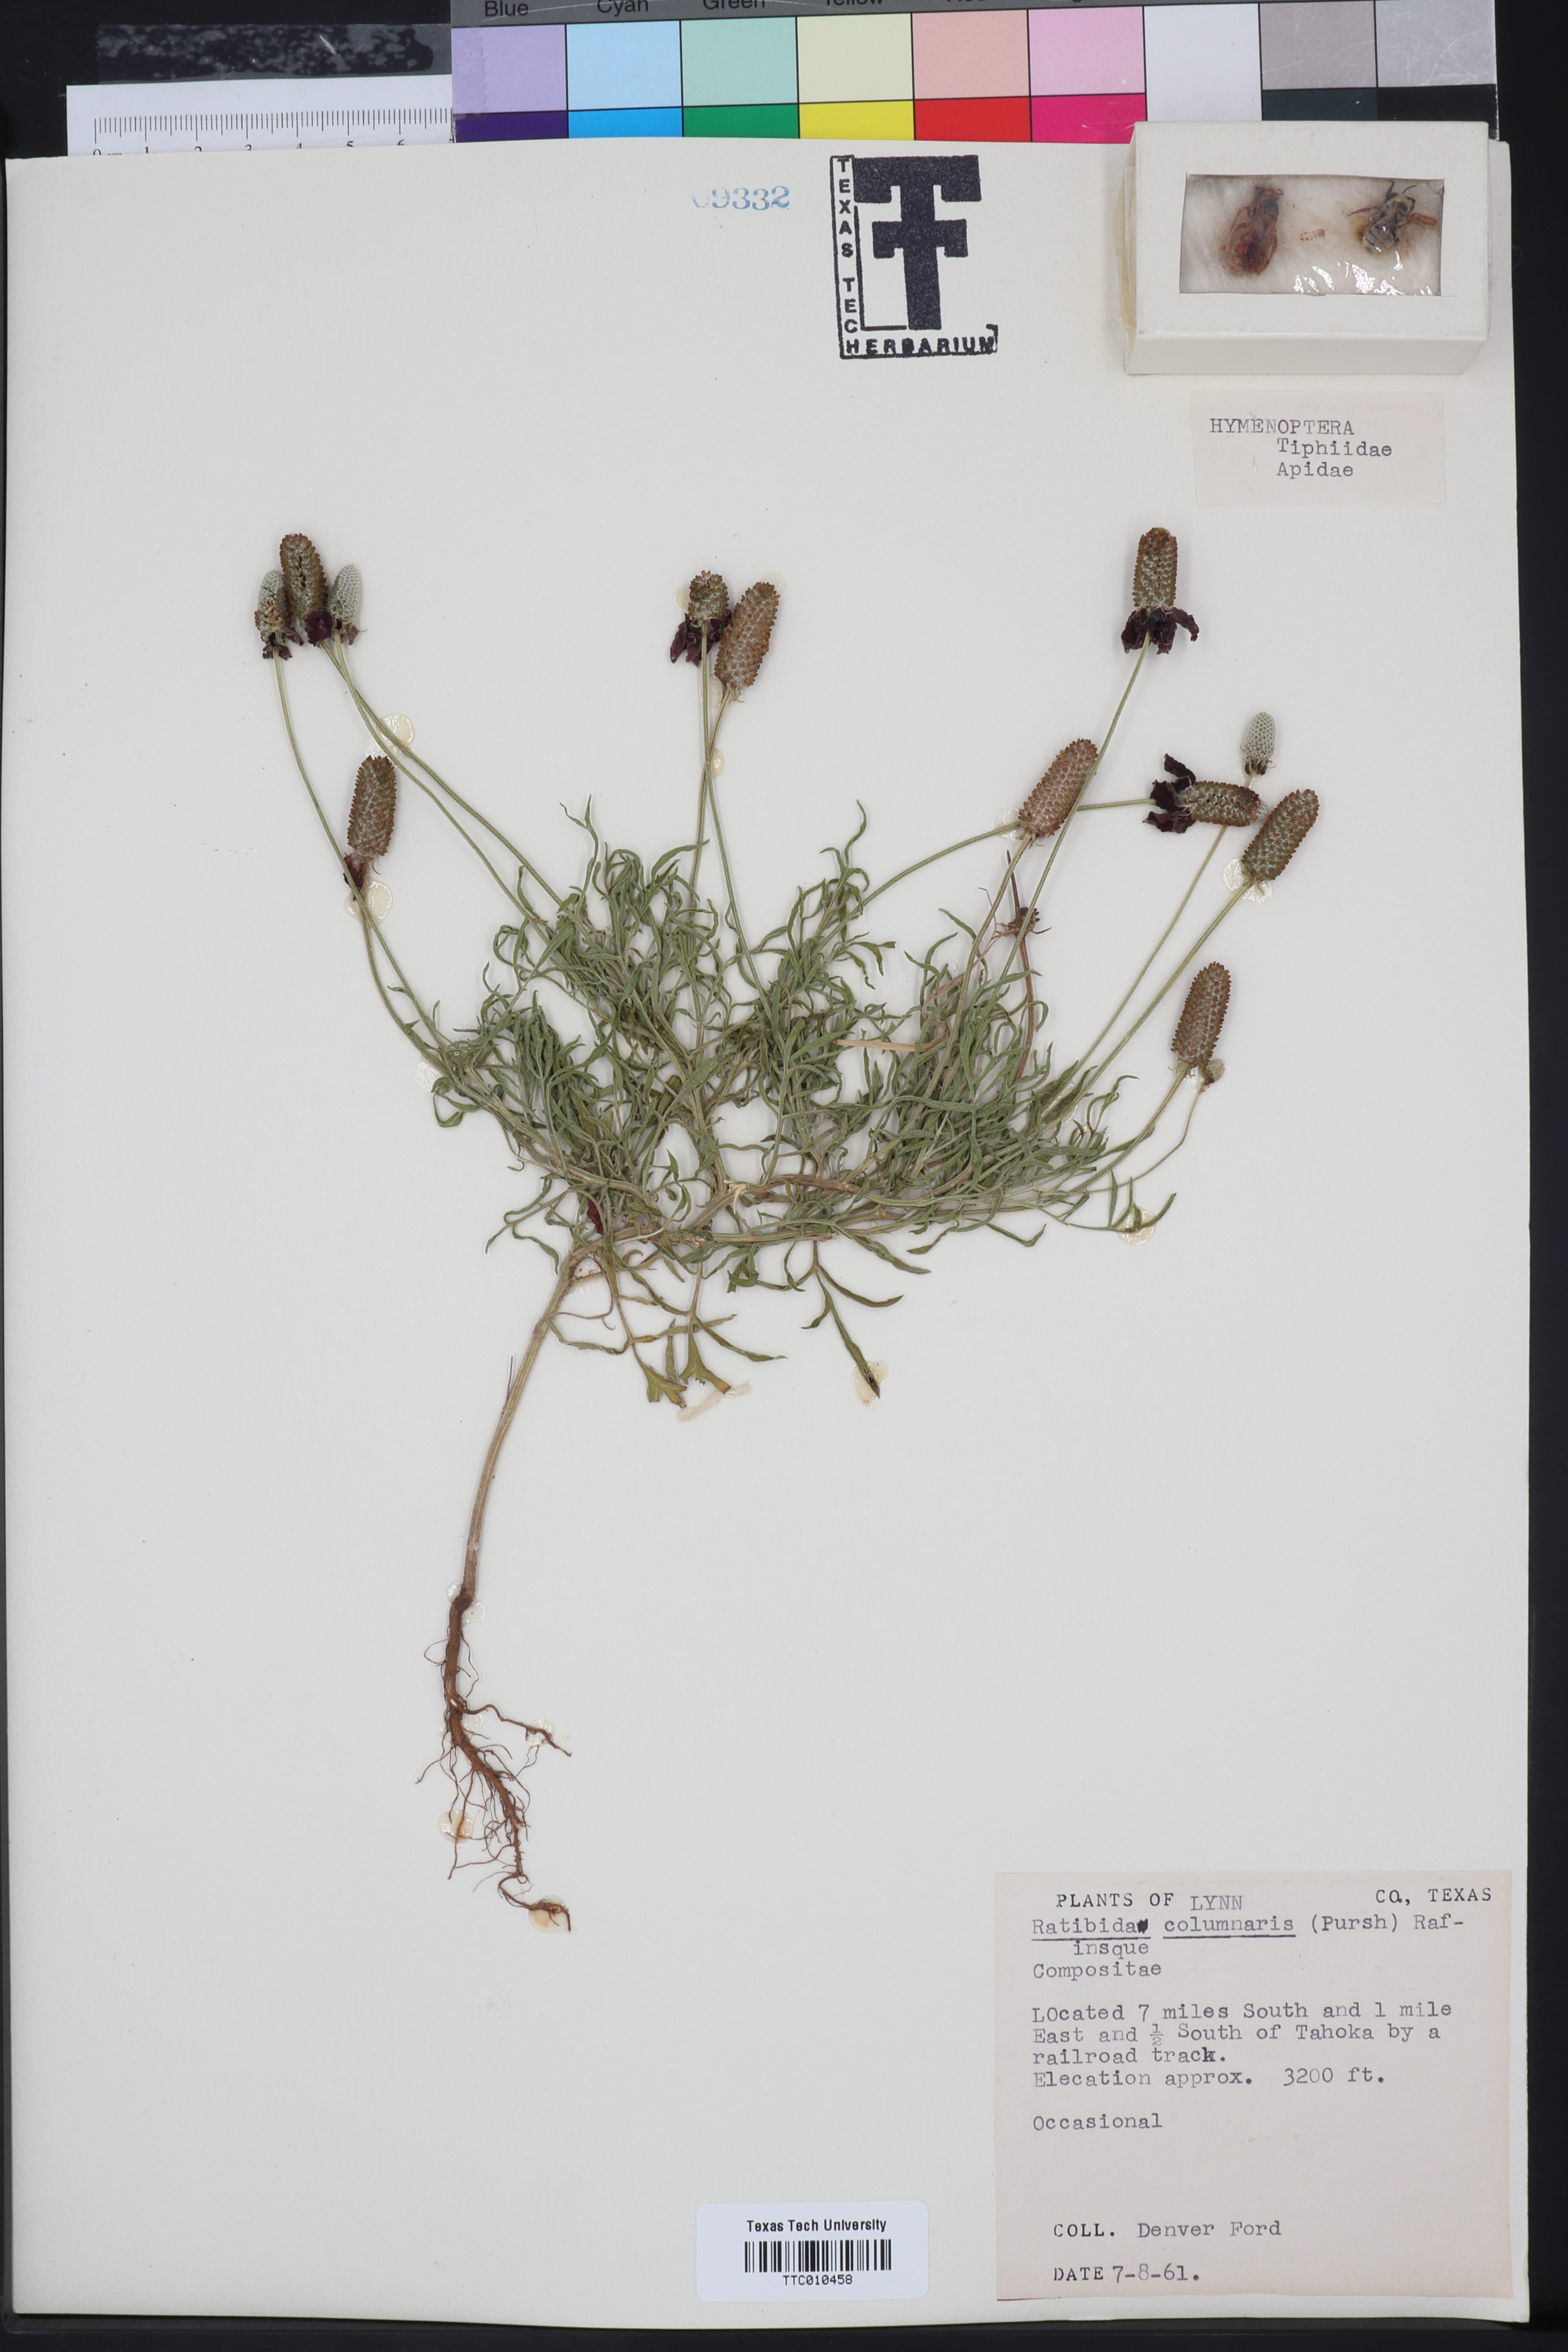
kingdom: Plantae
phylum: Tracheophyta
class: Magnoliopsida
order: Asterales
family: Asteraceae
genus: Ratibida
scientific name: Ratibida columnifera
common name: Prairie coneflower
